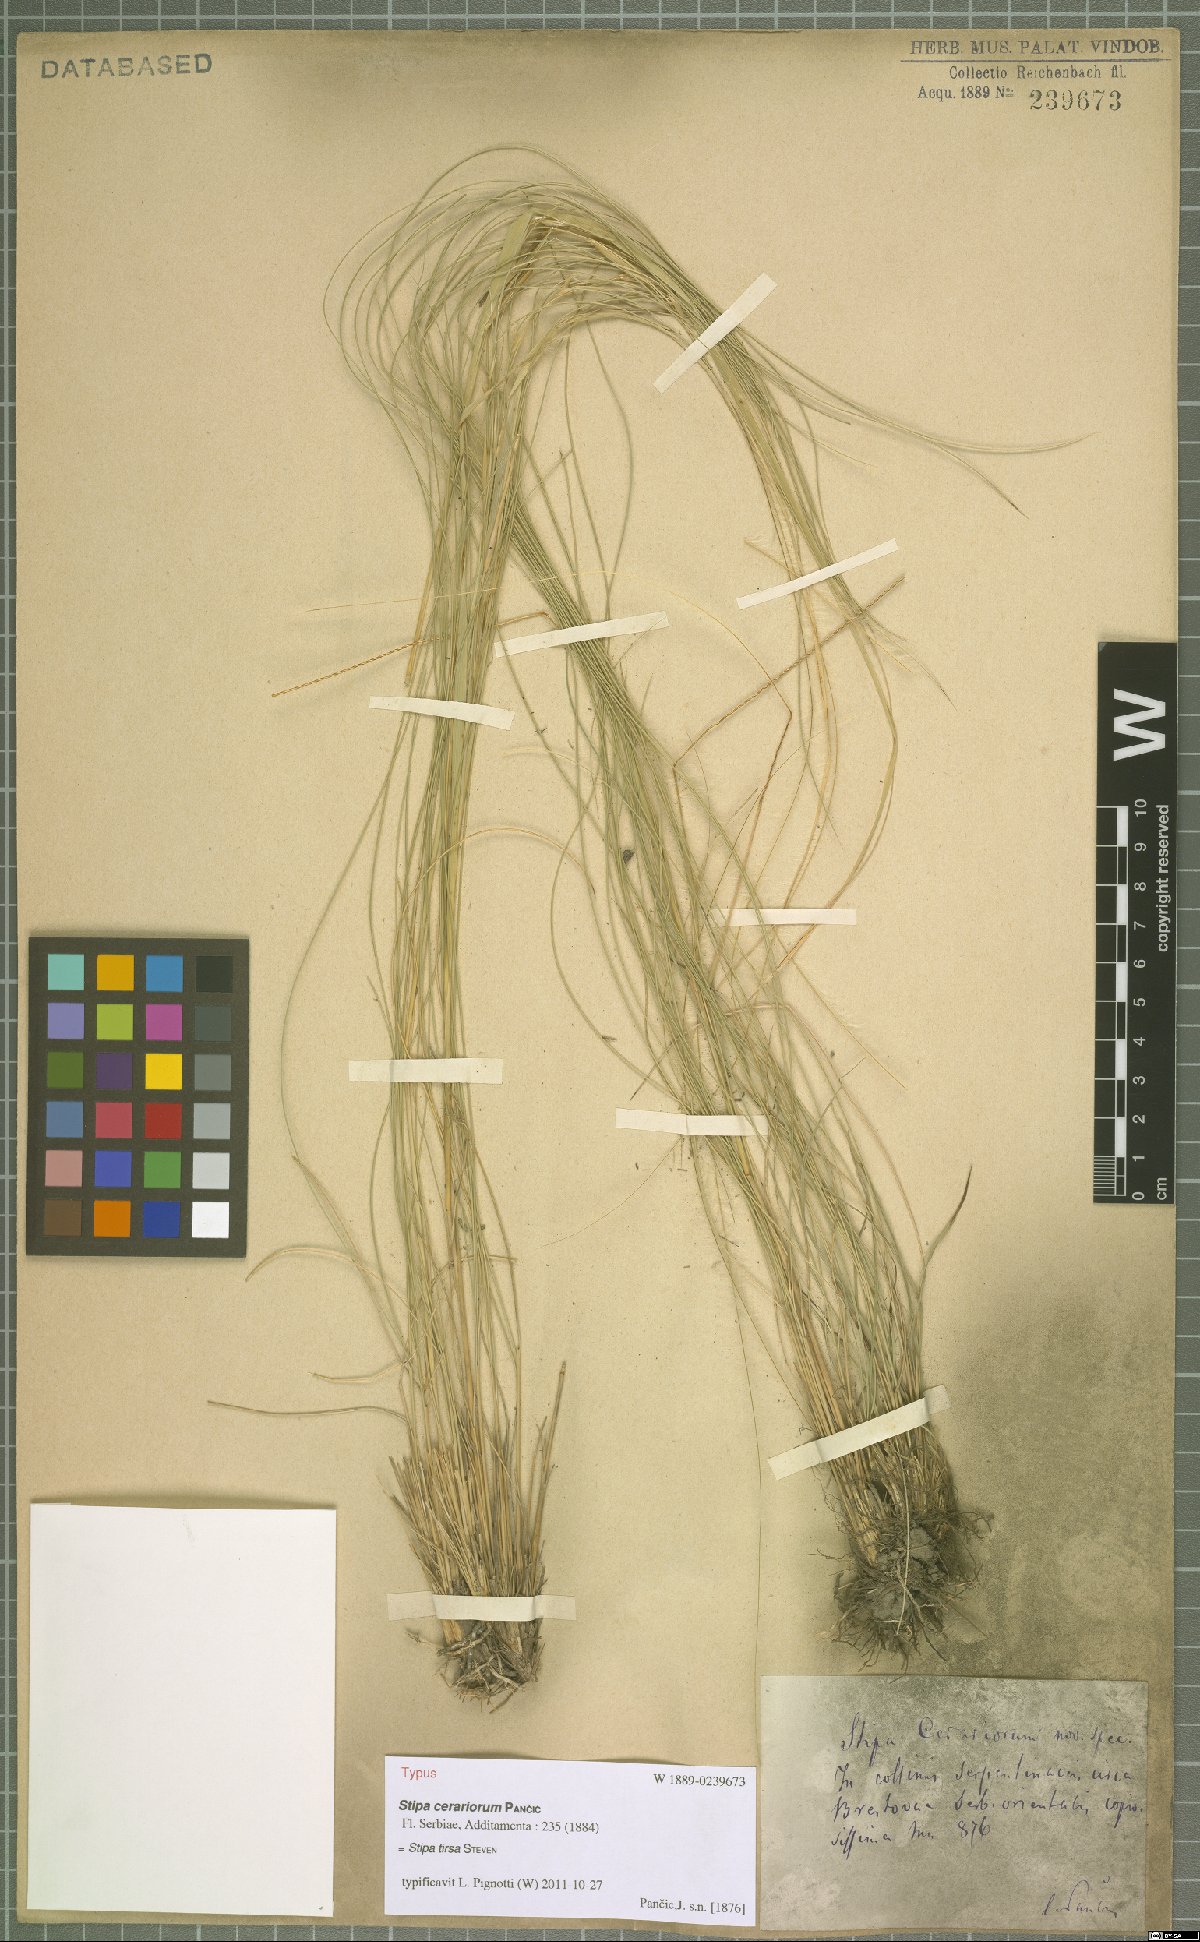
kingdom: Plantae
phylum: Tracheophyta
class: Liliopsida
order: Poales
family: Poaceae
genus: Stipa
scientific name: Stipa tirsa
